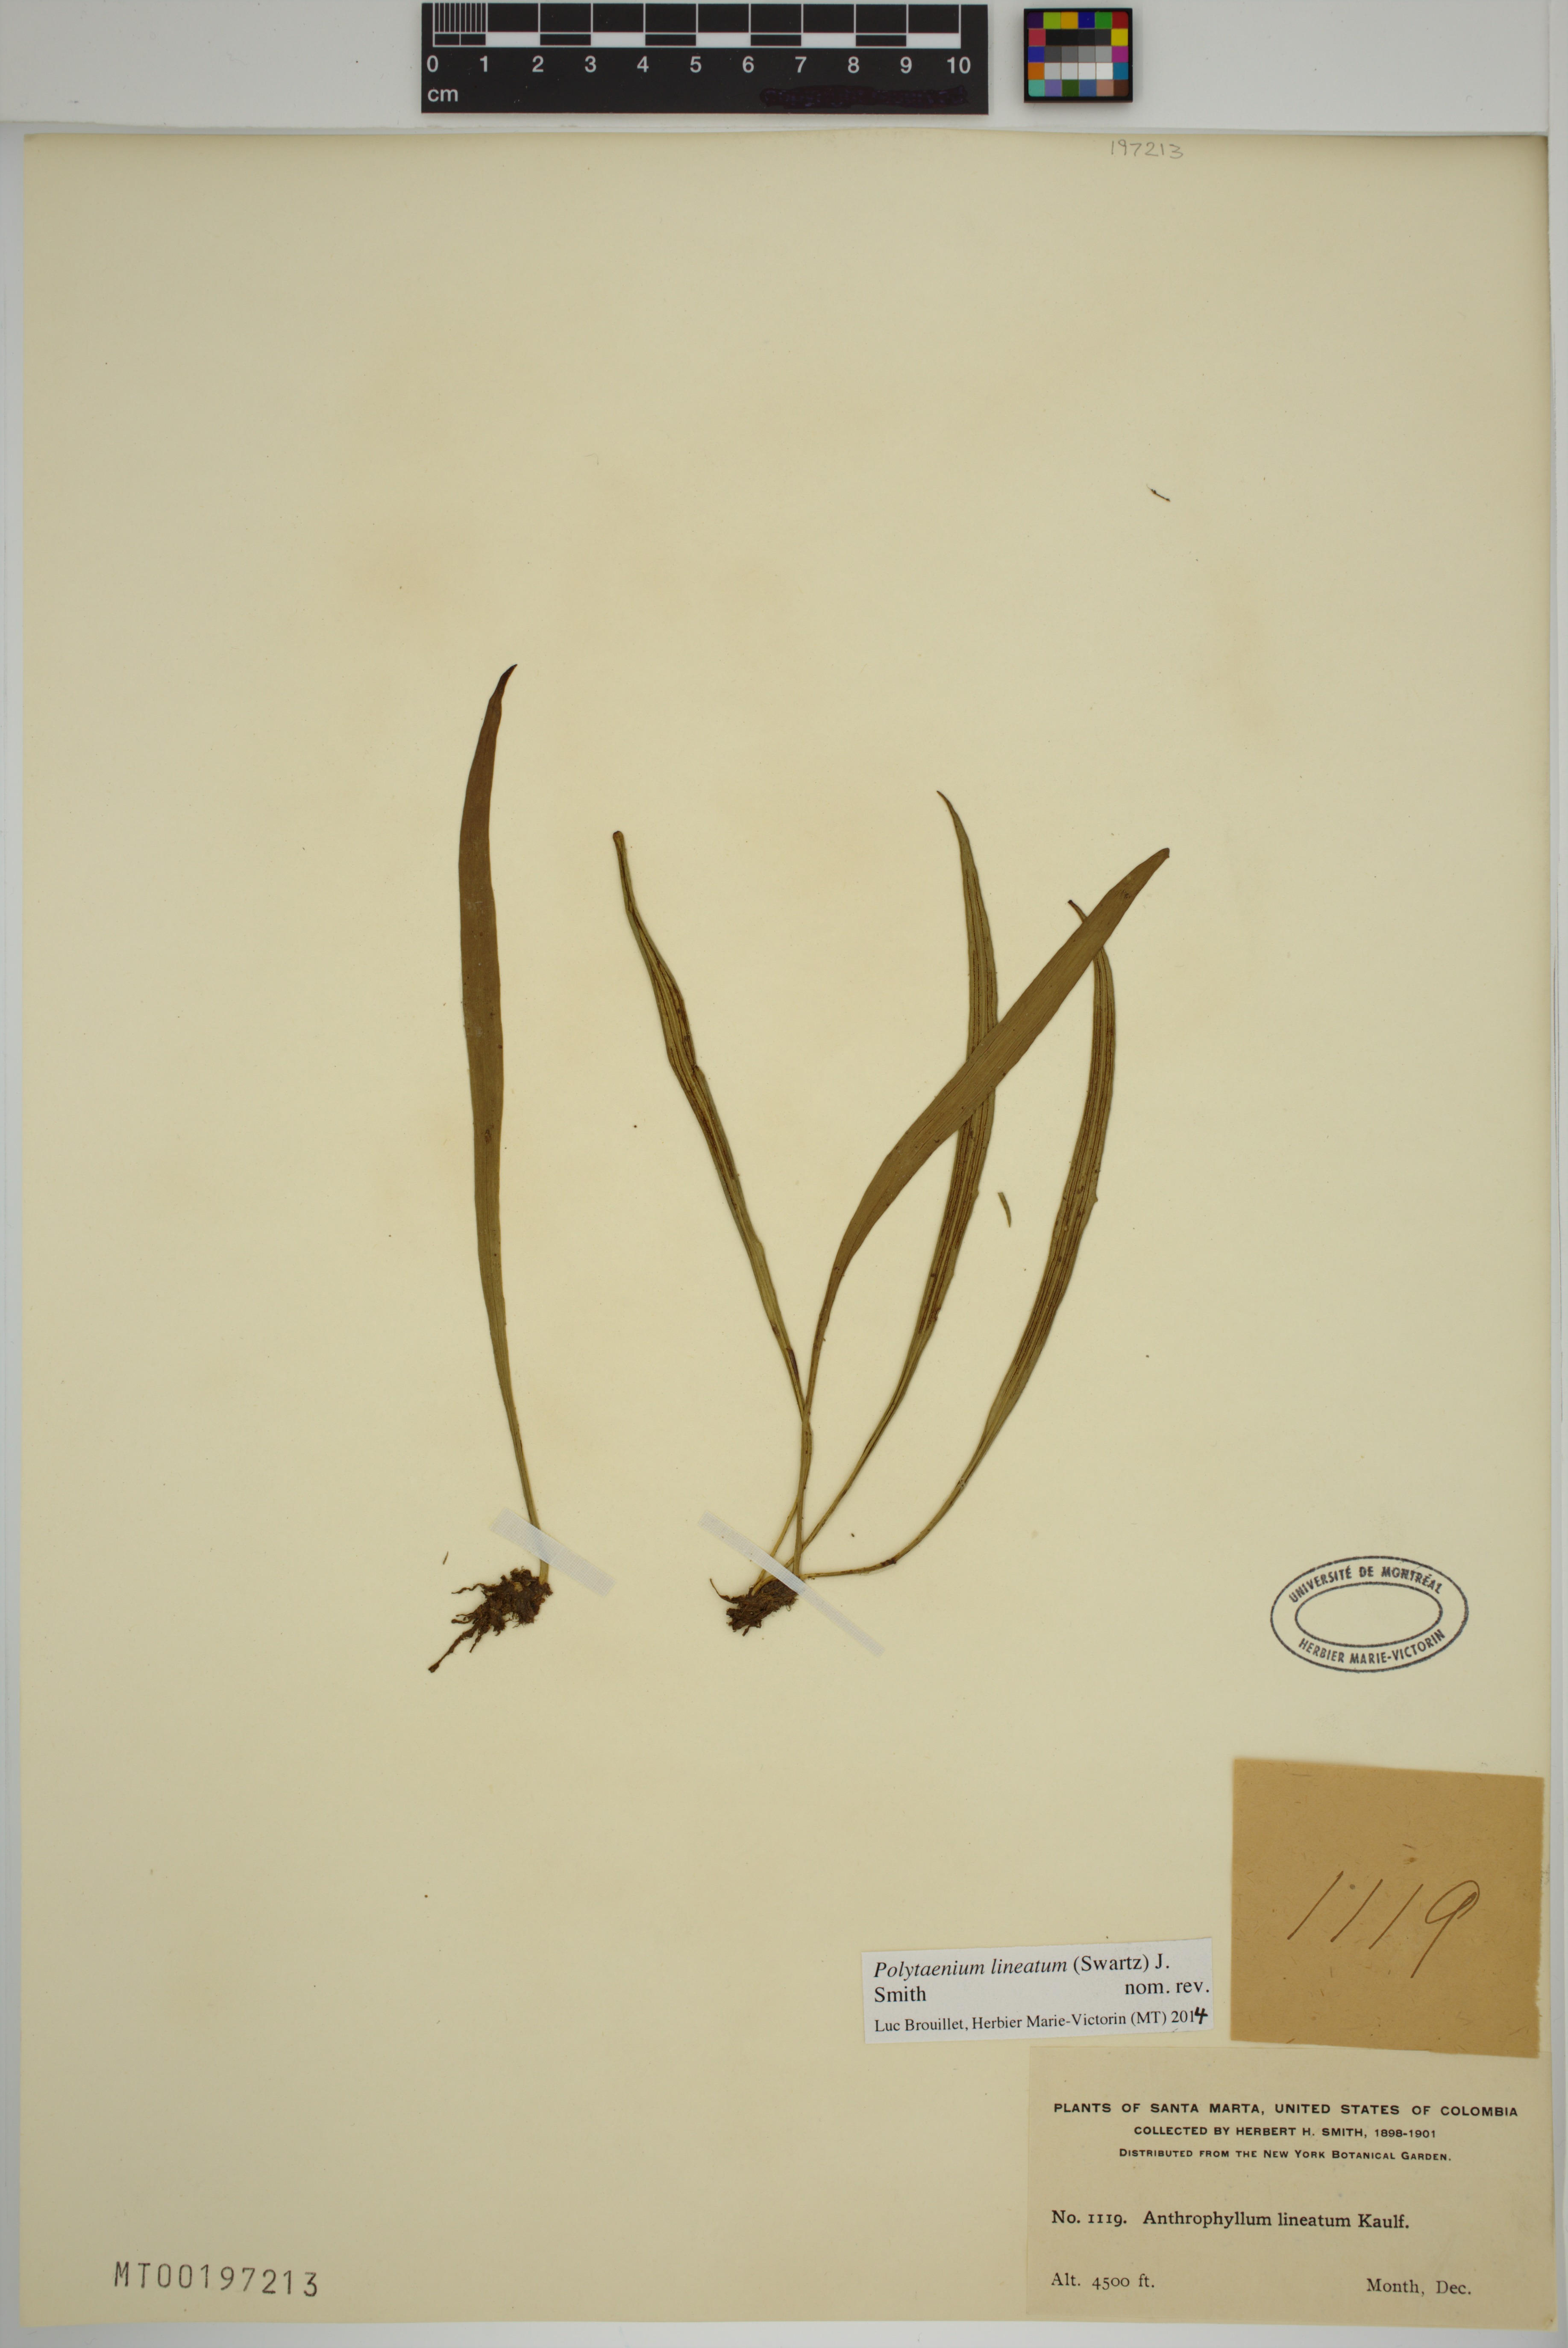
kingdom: Plantae
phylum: Tracheophyta
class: Polypodiopsida
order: Polypodiales
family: Pteridaceae
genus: Polytaenium
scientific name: Polytaenium lineatum
